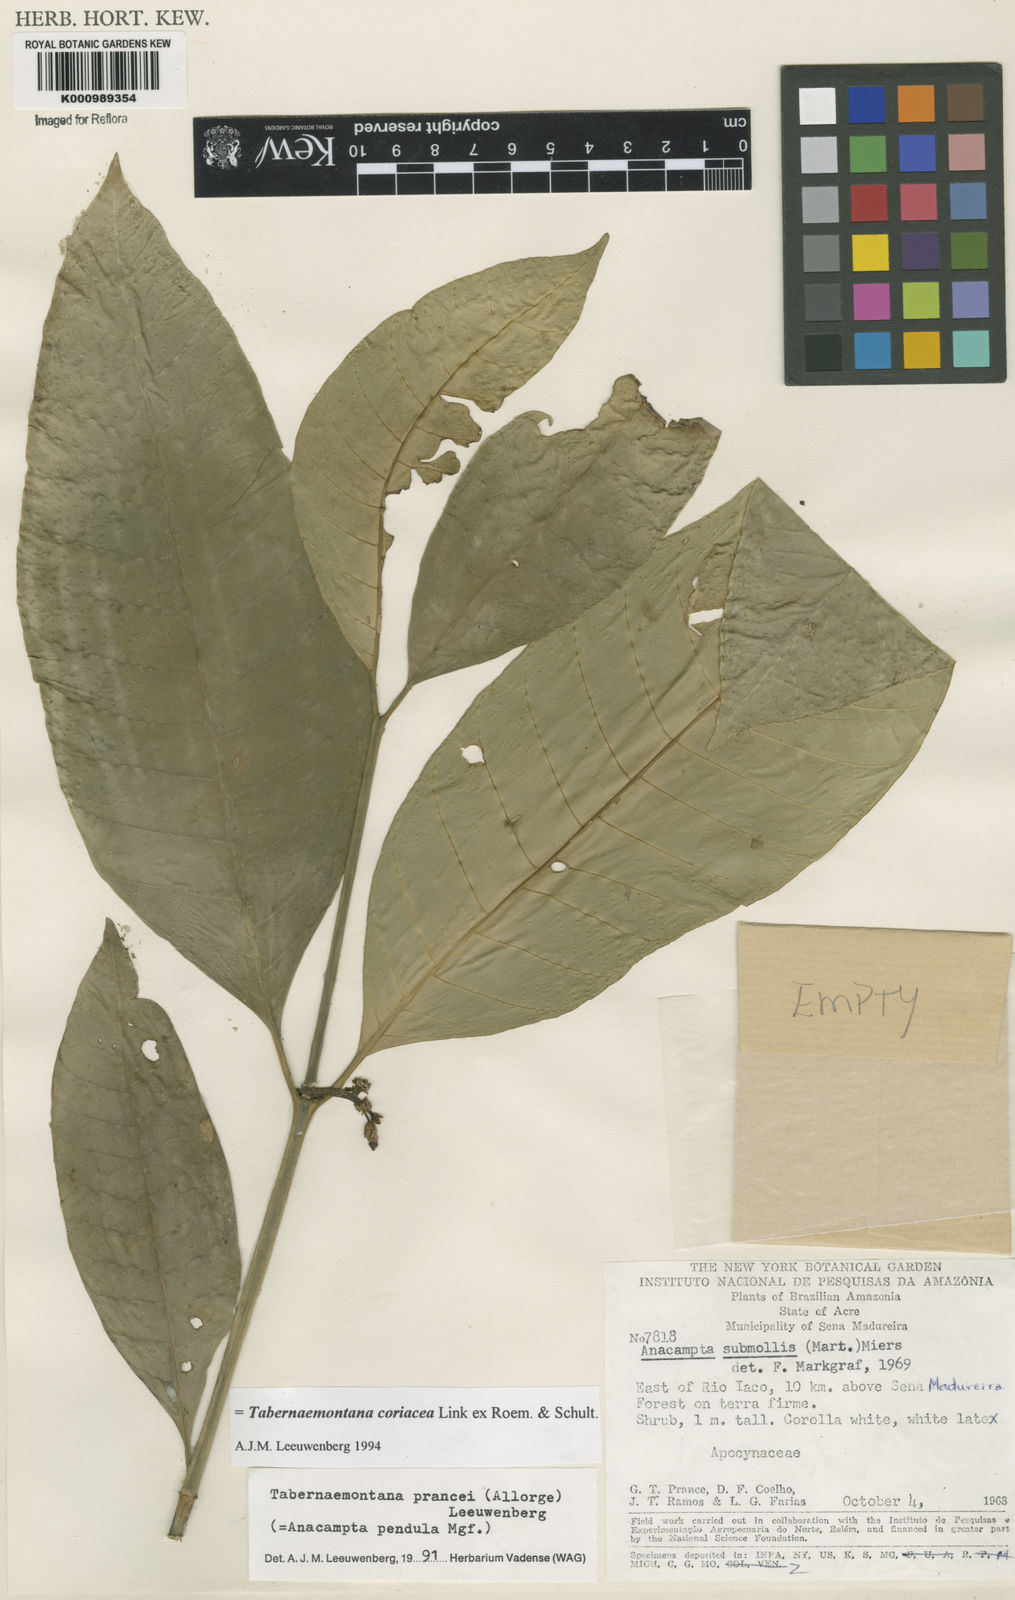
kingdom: Plantae
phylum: Tracheophyta
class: Magnoliopsida
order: Gentianales
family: Apocynaceae
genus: Tabernaemontana
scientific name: Tabernaemontana coriacea
